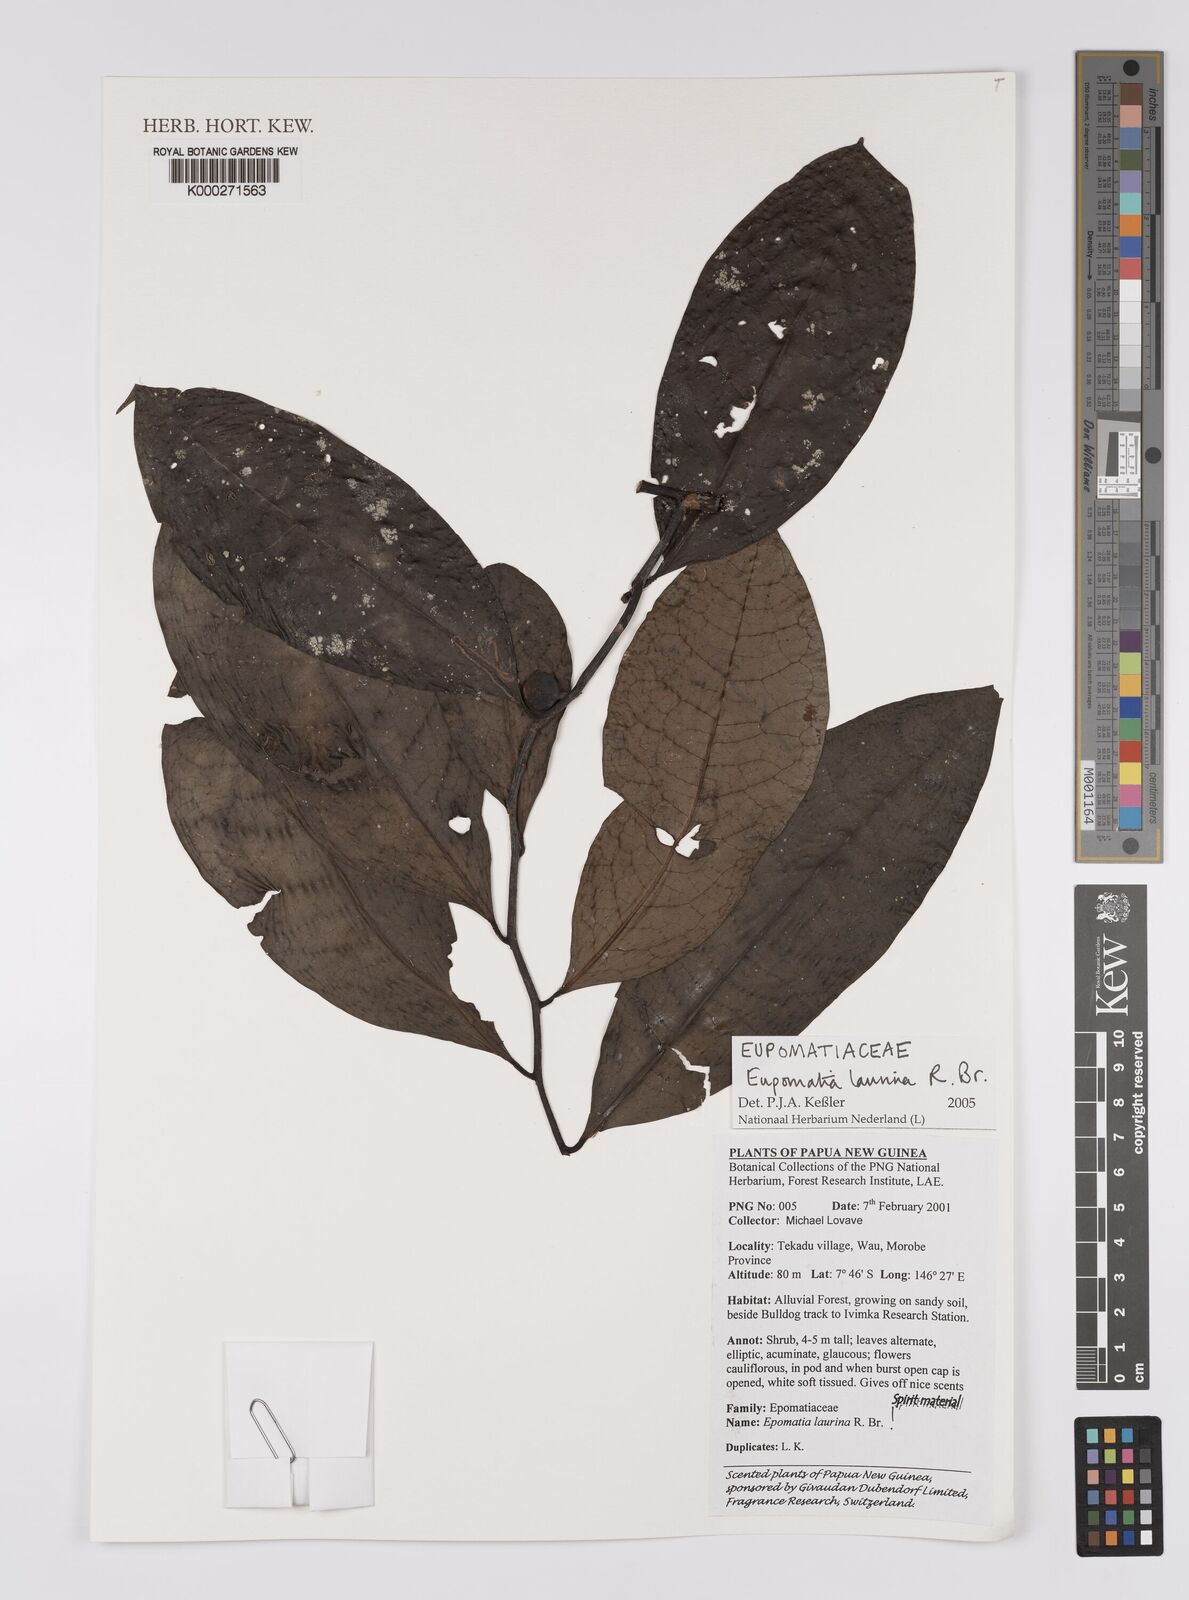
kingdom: Plantae
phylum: Tracheophyta
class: Magnoliopsida
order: Magnoliales
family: Eupomatiaceae
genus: Eupomatia
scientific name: Eupomatia laurina
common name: Bolwarra
